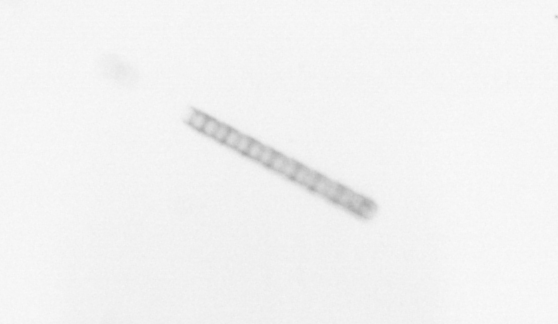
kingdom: Chromista
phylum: Ochrophyta
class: Bacillariophyceae
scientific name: Bacillariophyceae
